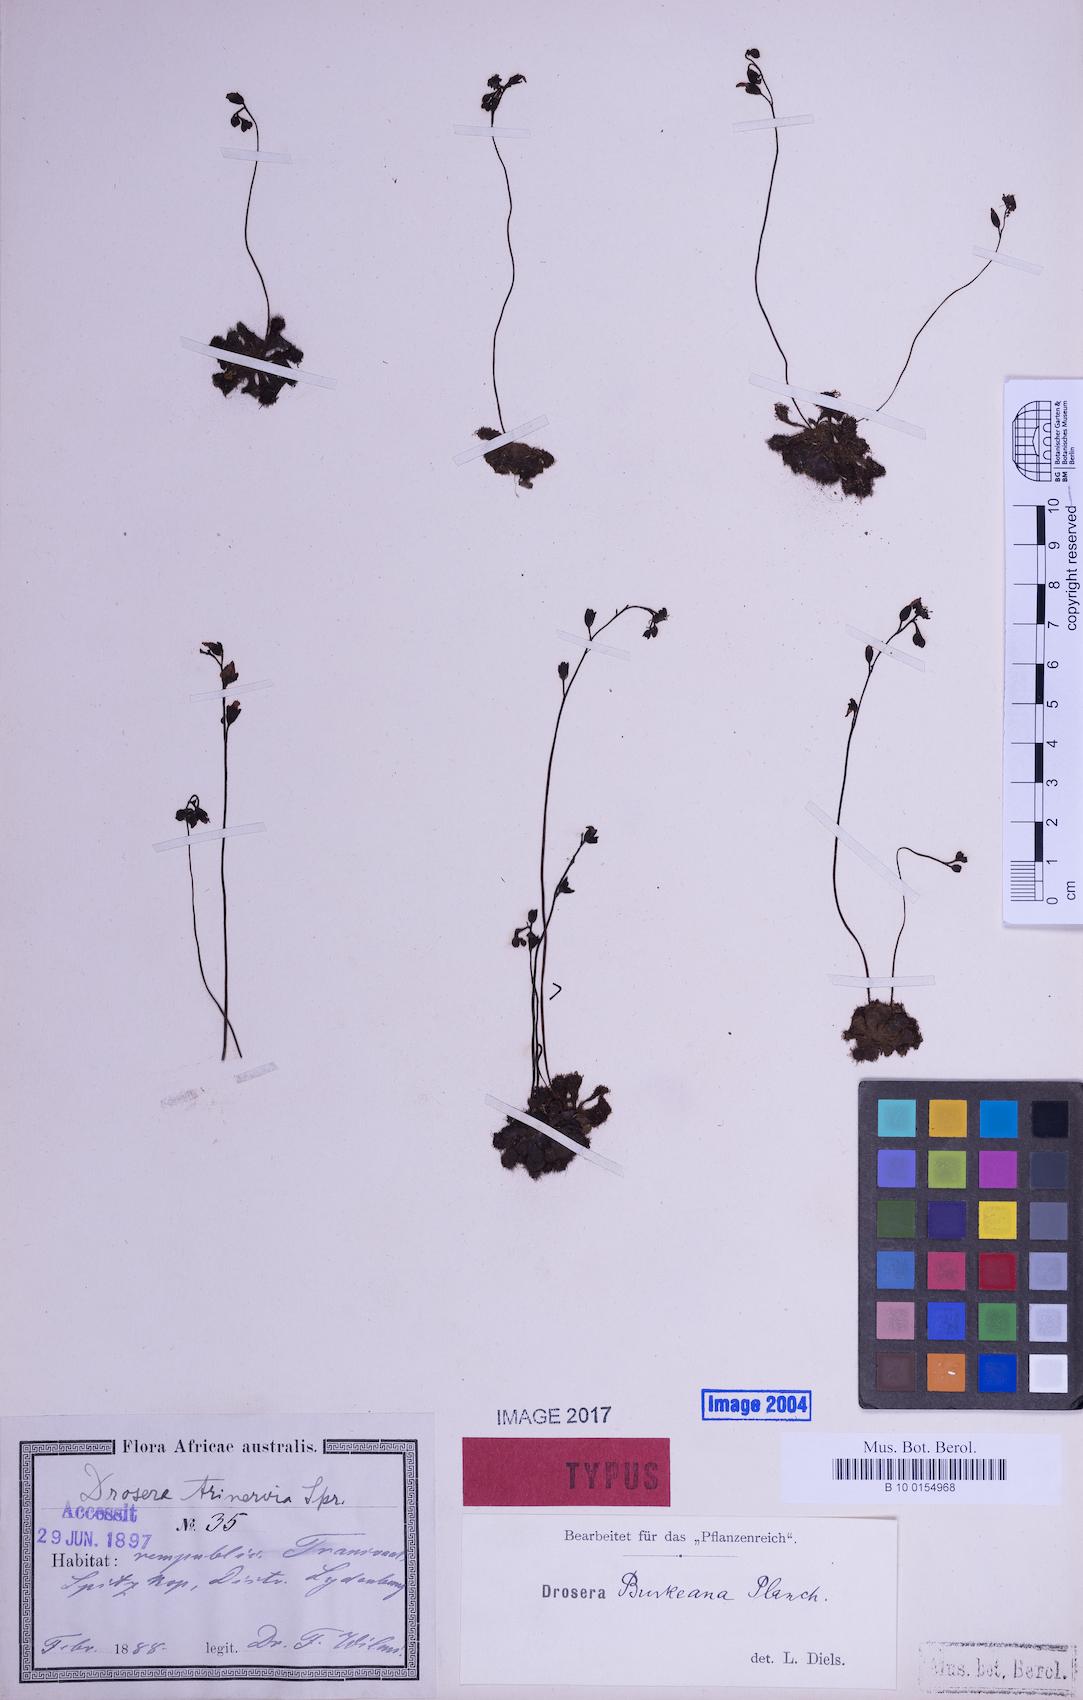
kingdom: Plantae
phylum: Tracheophyta
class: Magnoliopsida
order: Caryophyllales
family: Droseraceae
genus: Drosera
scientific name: Drosera burkeana
